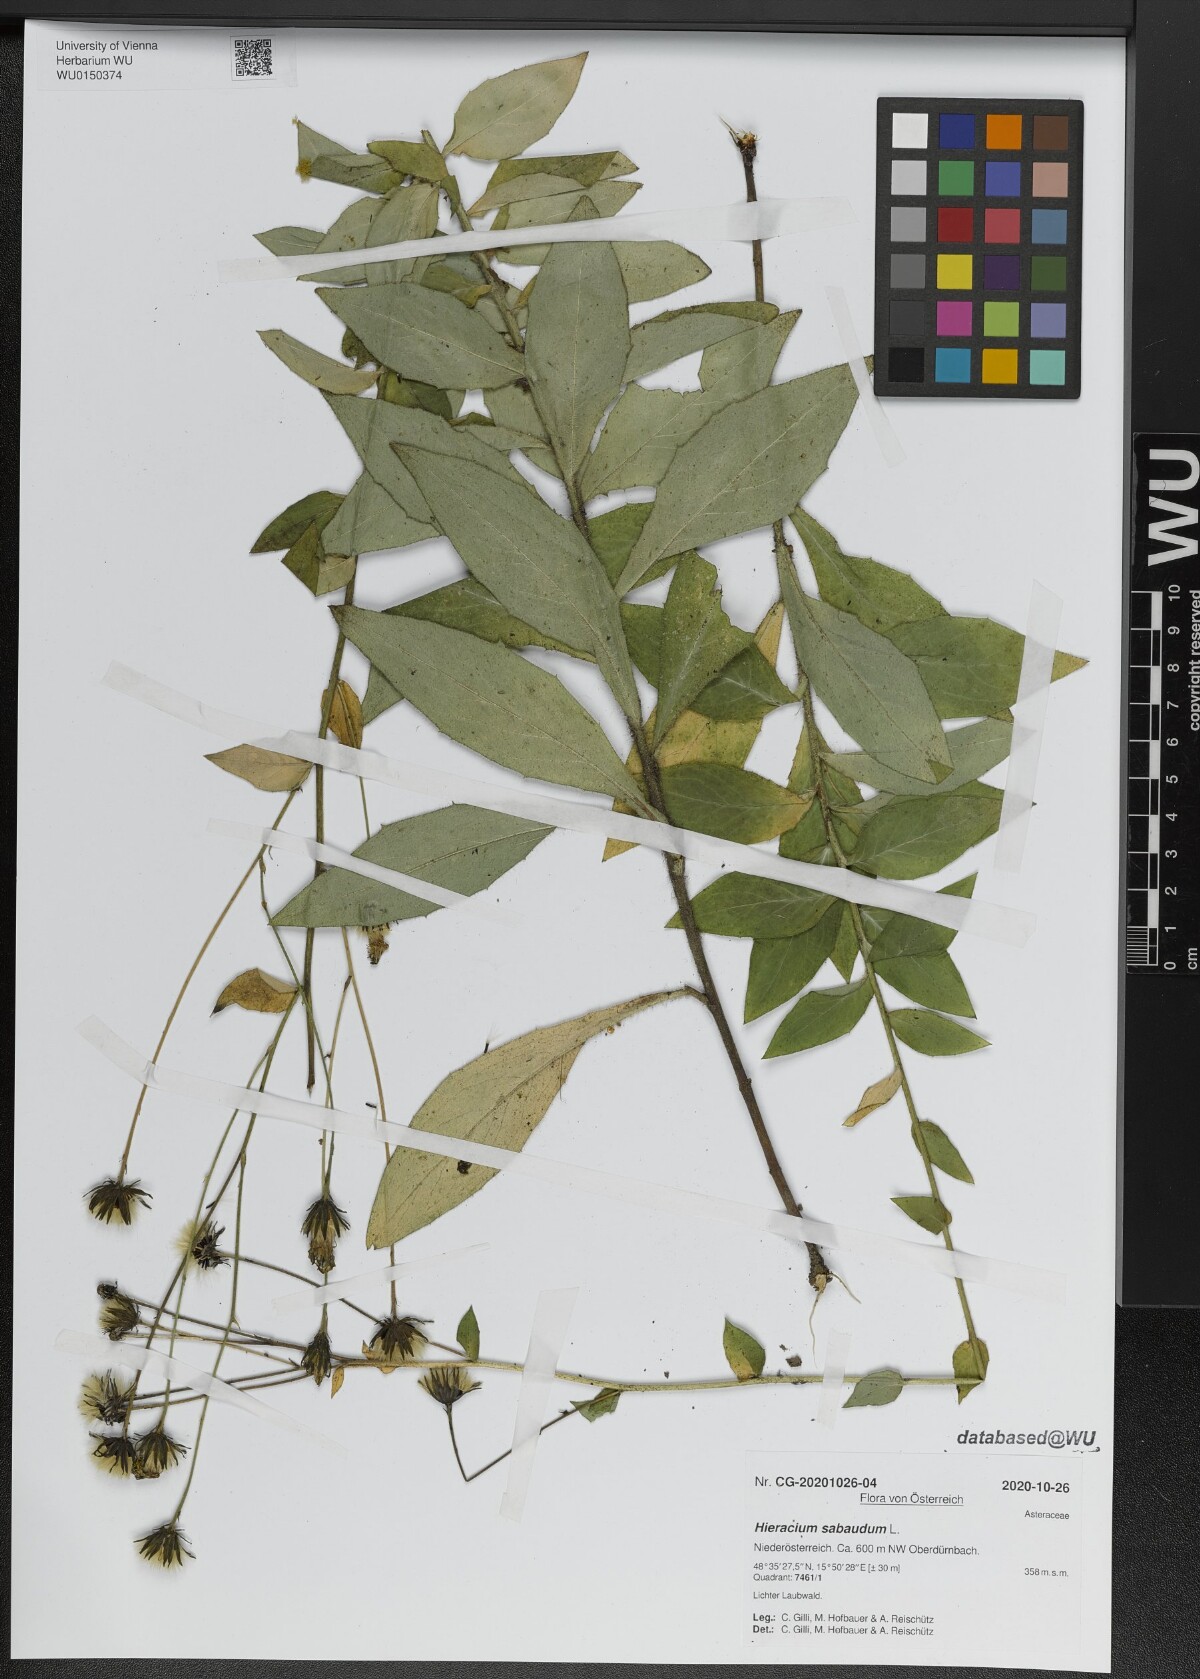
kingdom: Plantae
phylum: Tracheophyta
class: Magnoliopsida
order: Asterales
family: Asteraceae
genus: Hieracium
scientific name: Hieracium sabaudum
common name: New england hawkweed
